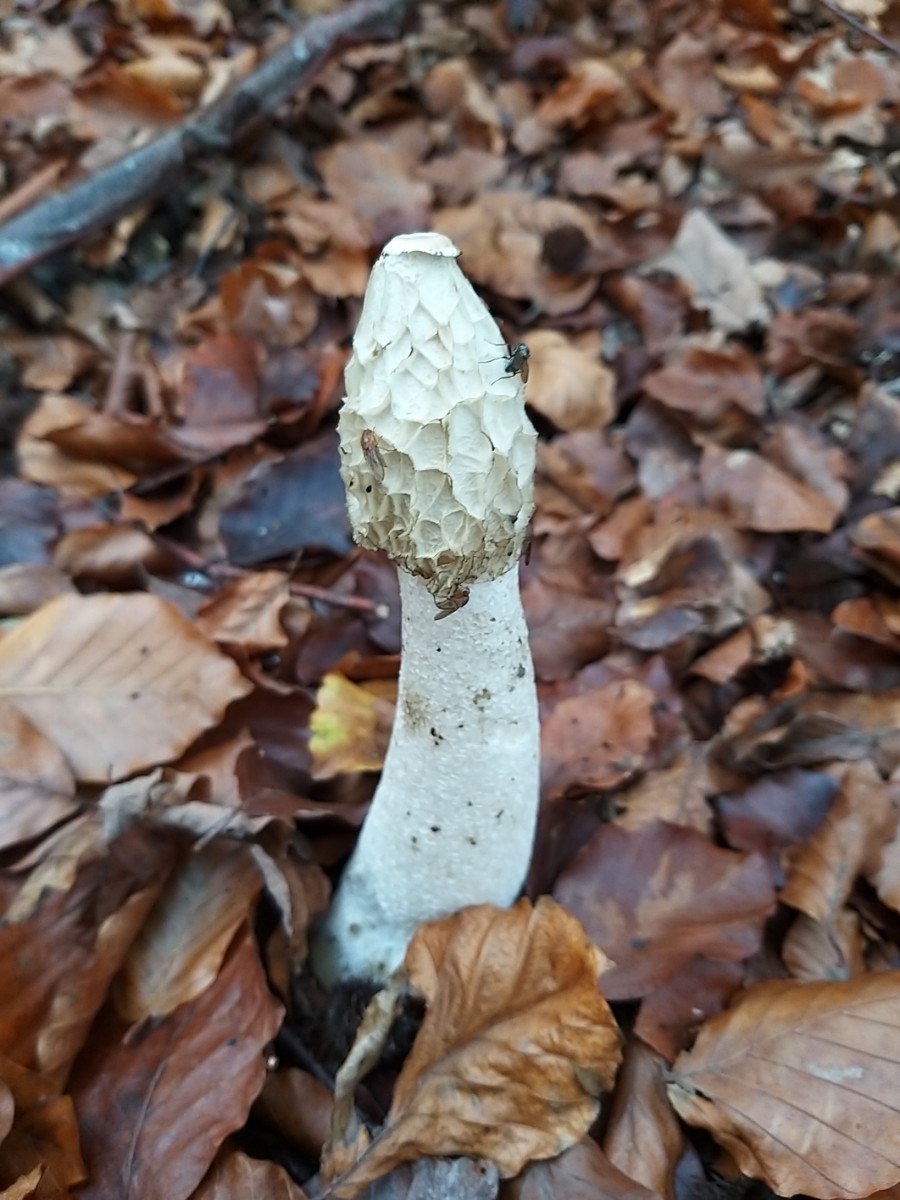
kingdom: Fungi
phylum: Basidiomycota
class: Agaricomycetes
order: Phallales
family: Phallaceae
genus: Phallus
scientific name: Phallus impudicus
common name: almindelig stinksvamp
